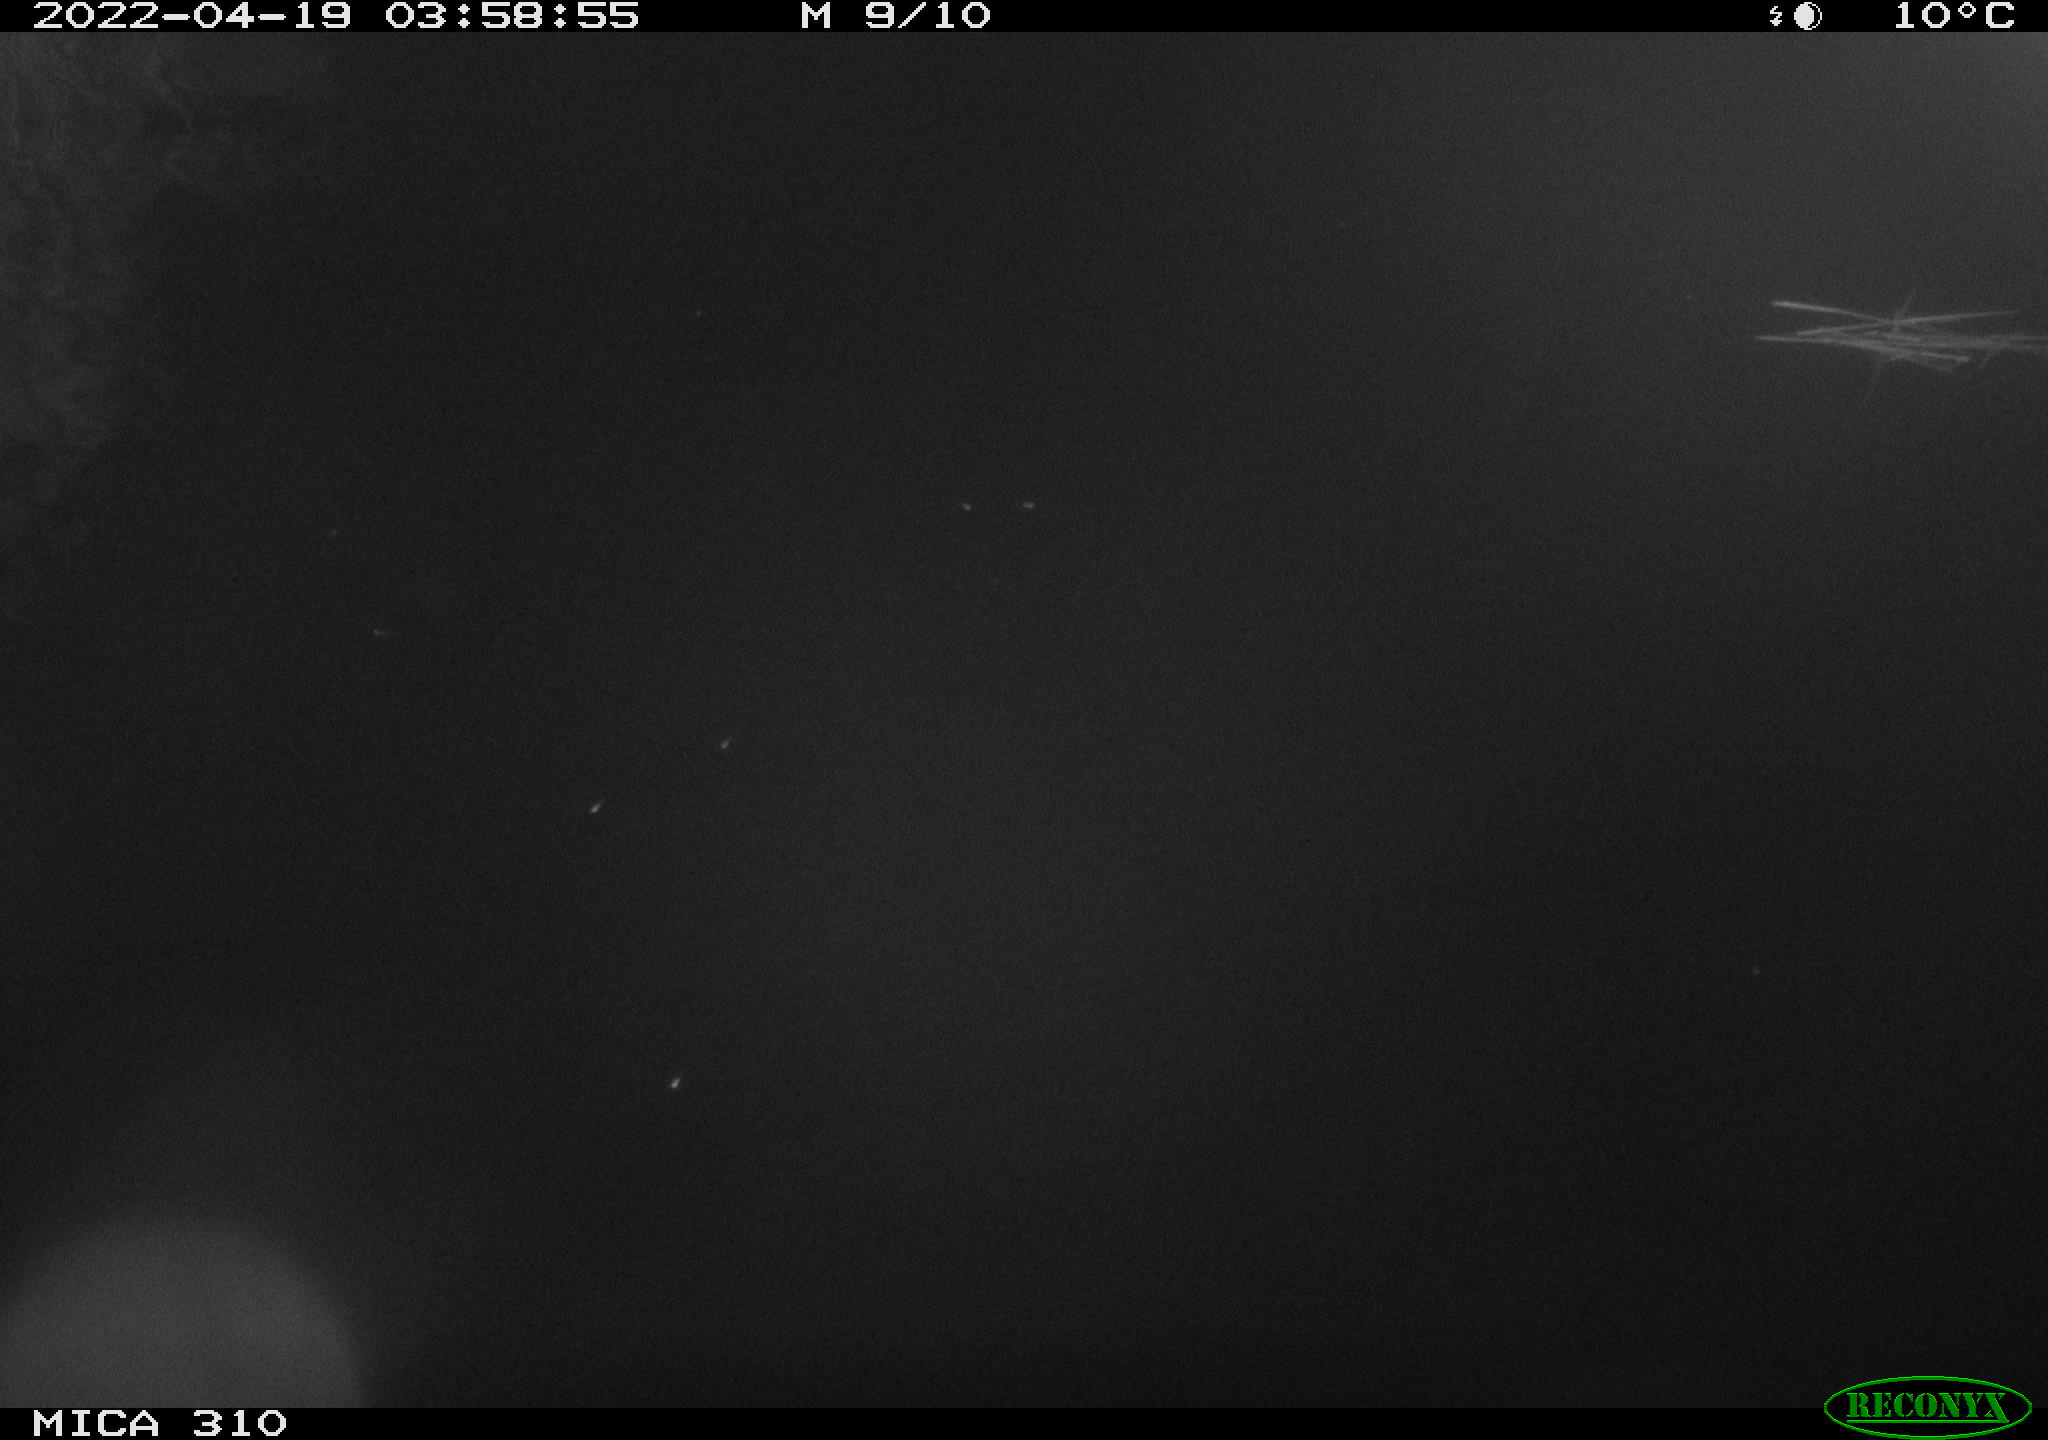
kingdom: Animalia
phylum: Chordata
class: Aves
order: Anseriformes
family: Anatidae
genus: Anas
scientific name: Anas platyrhynchos
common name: Mallard
